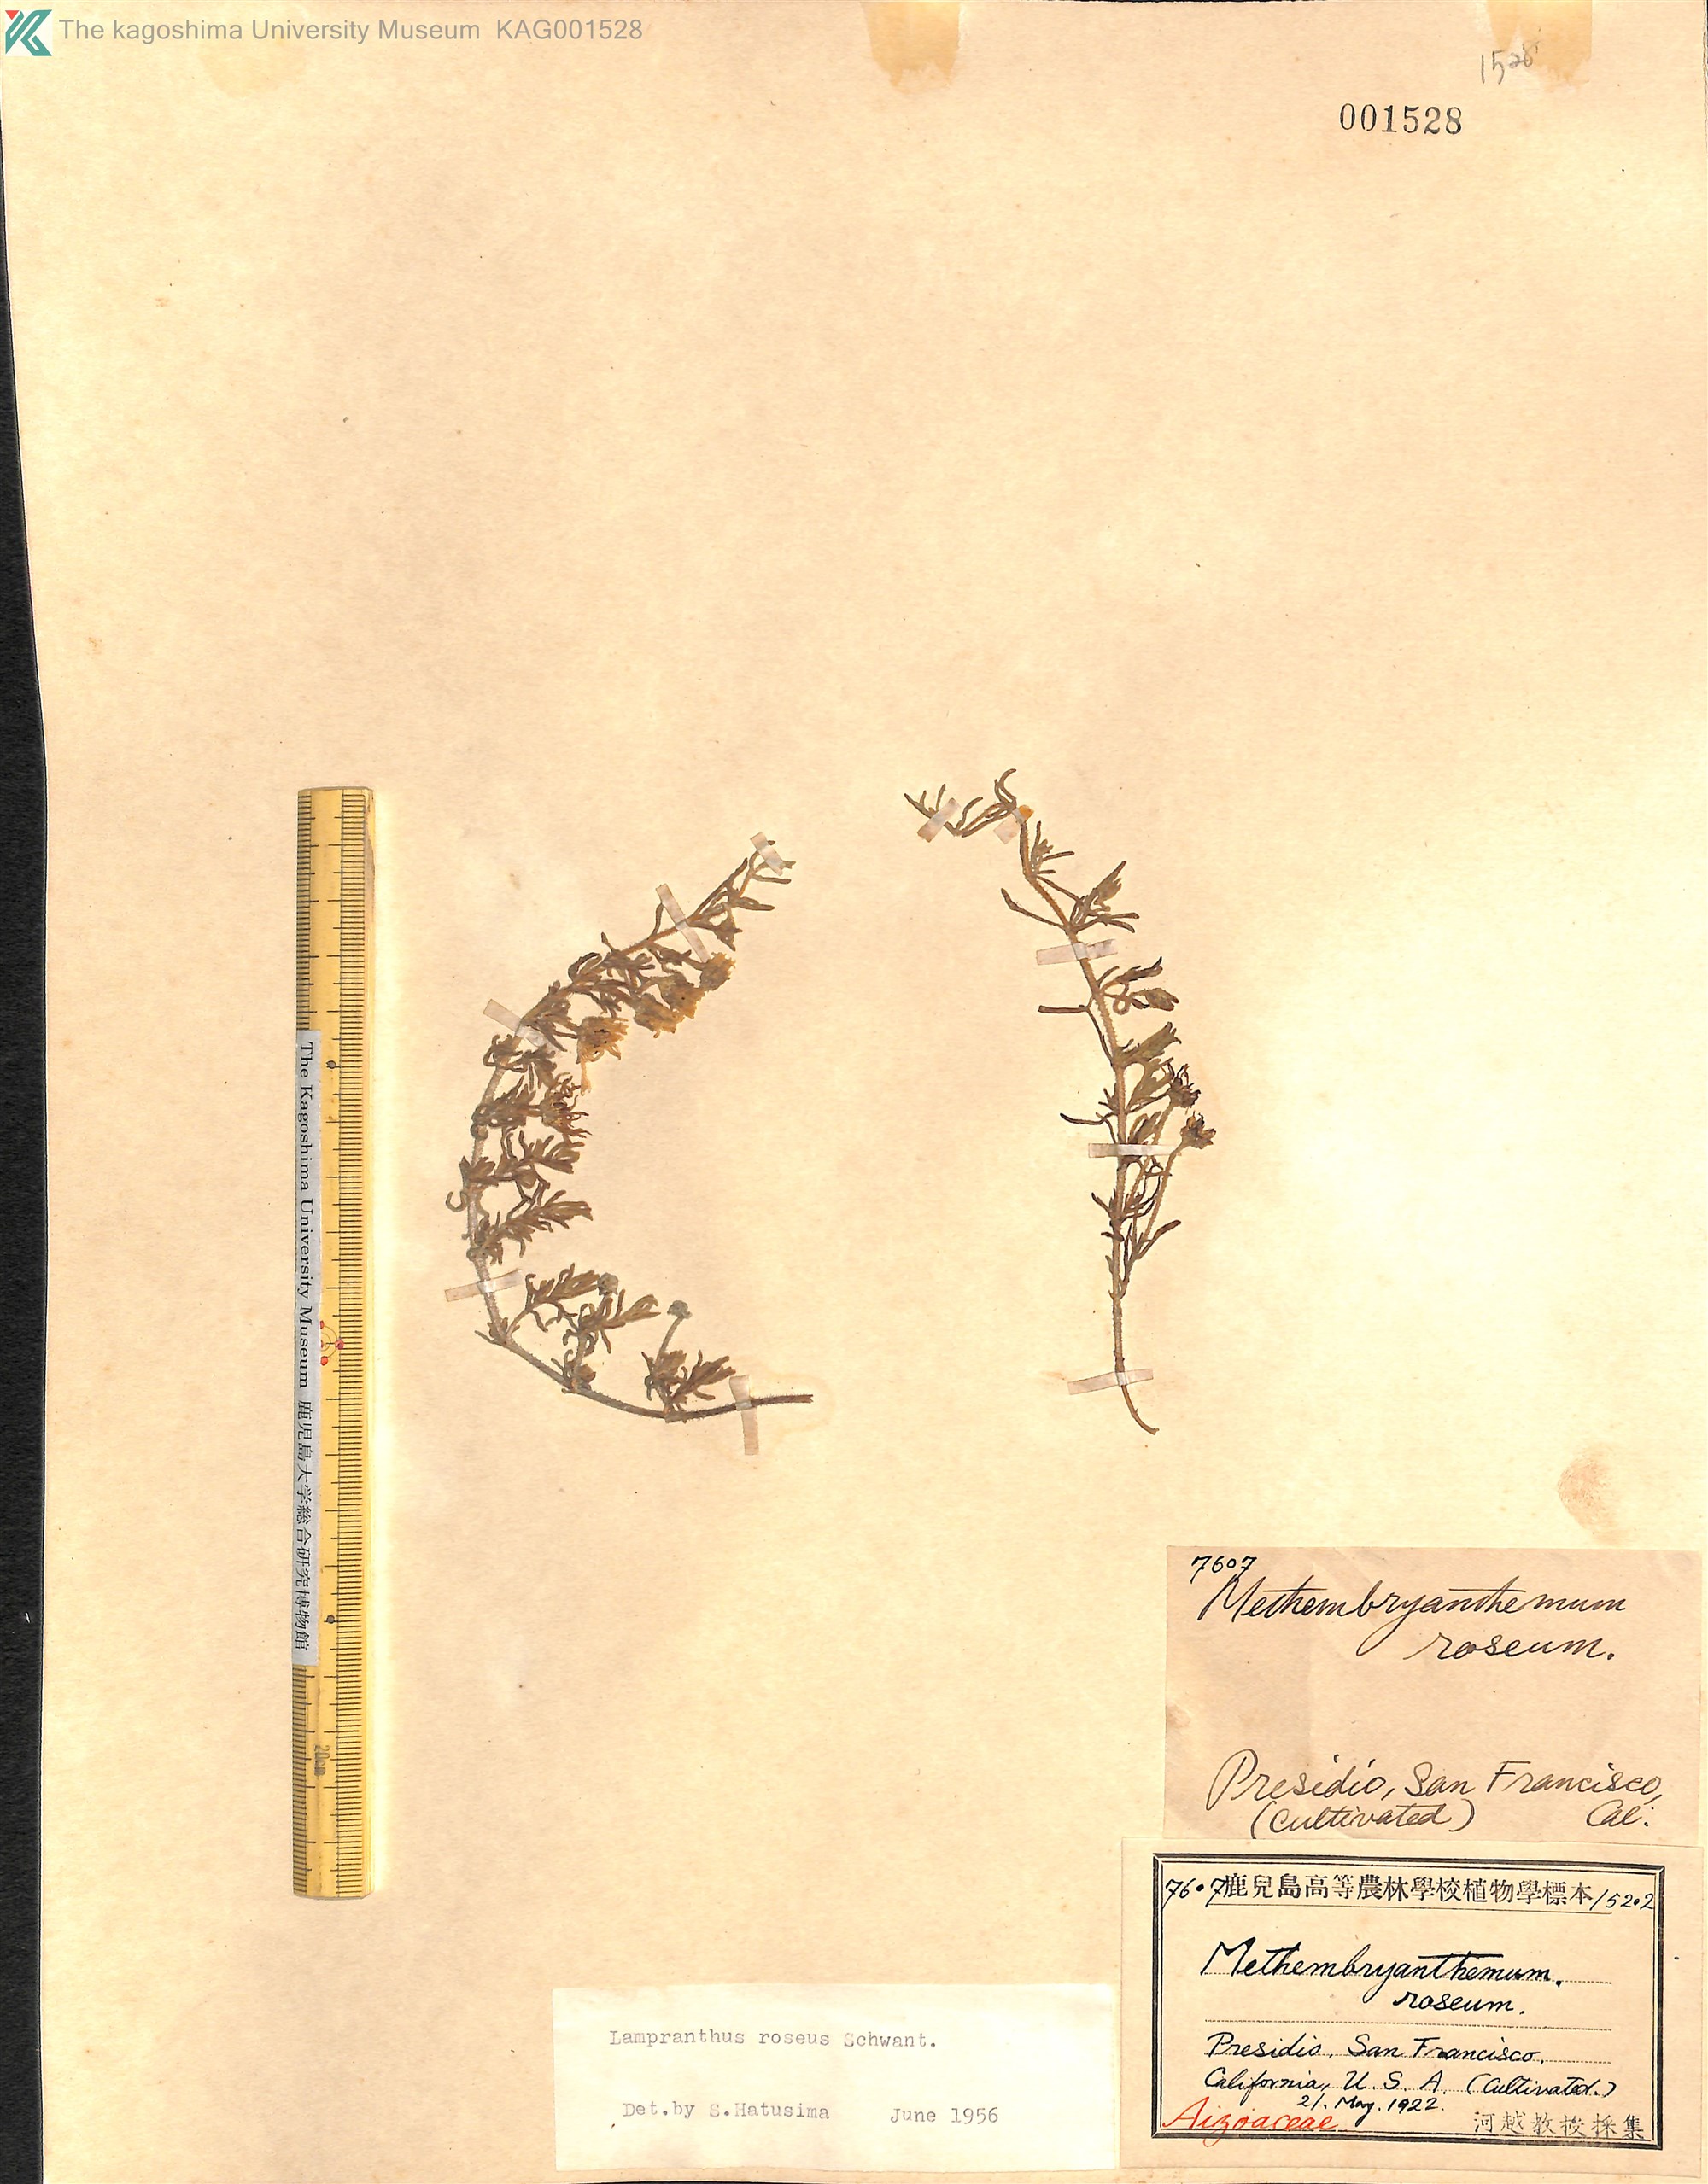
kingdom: Plantae
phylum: Tracheophyta
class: Magnoliopsida
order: Caryophyllales
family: Aizoaceae
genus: Lampranthus
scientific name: Lampranthus roseus
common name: Rosy dewplant
